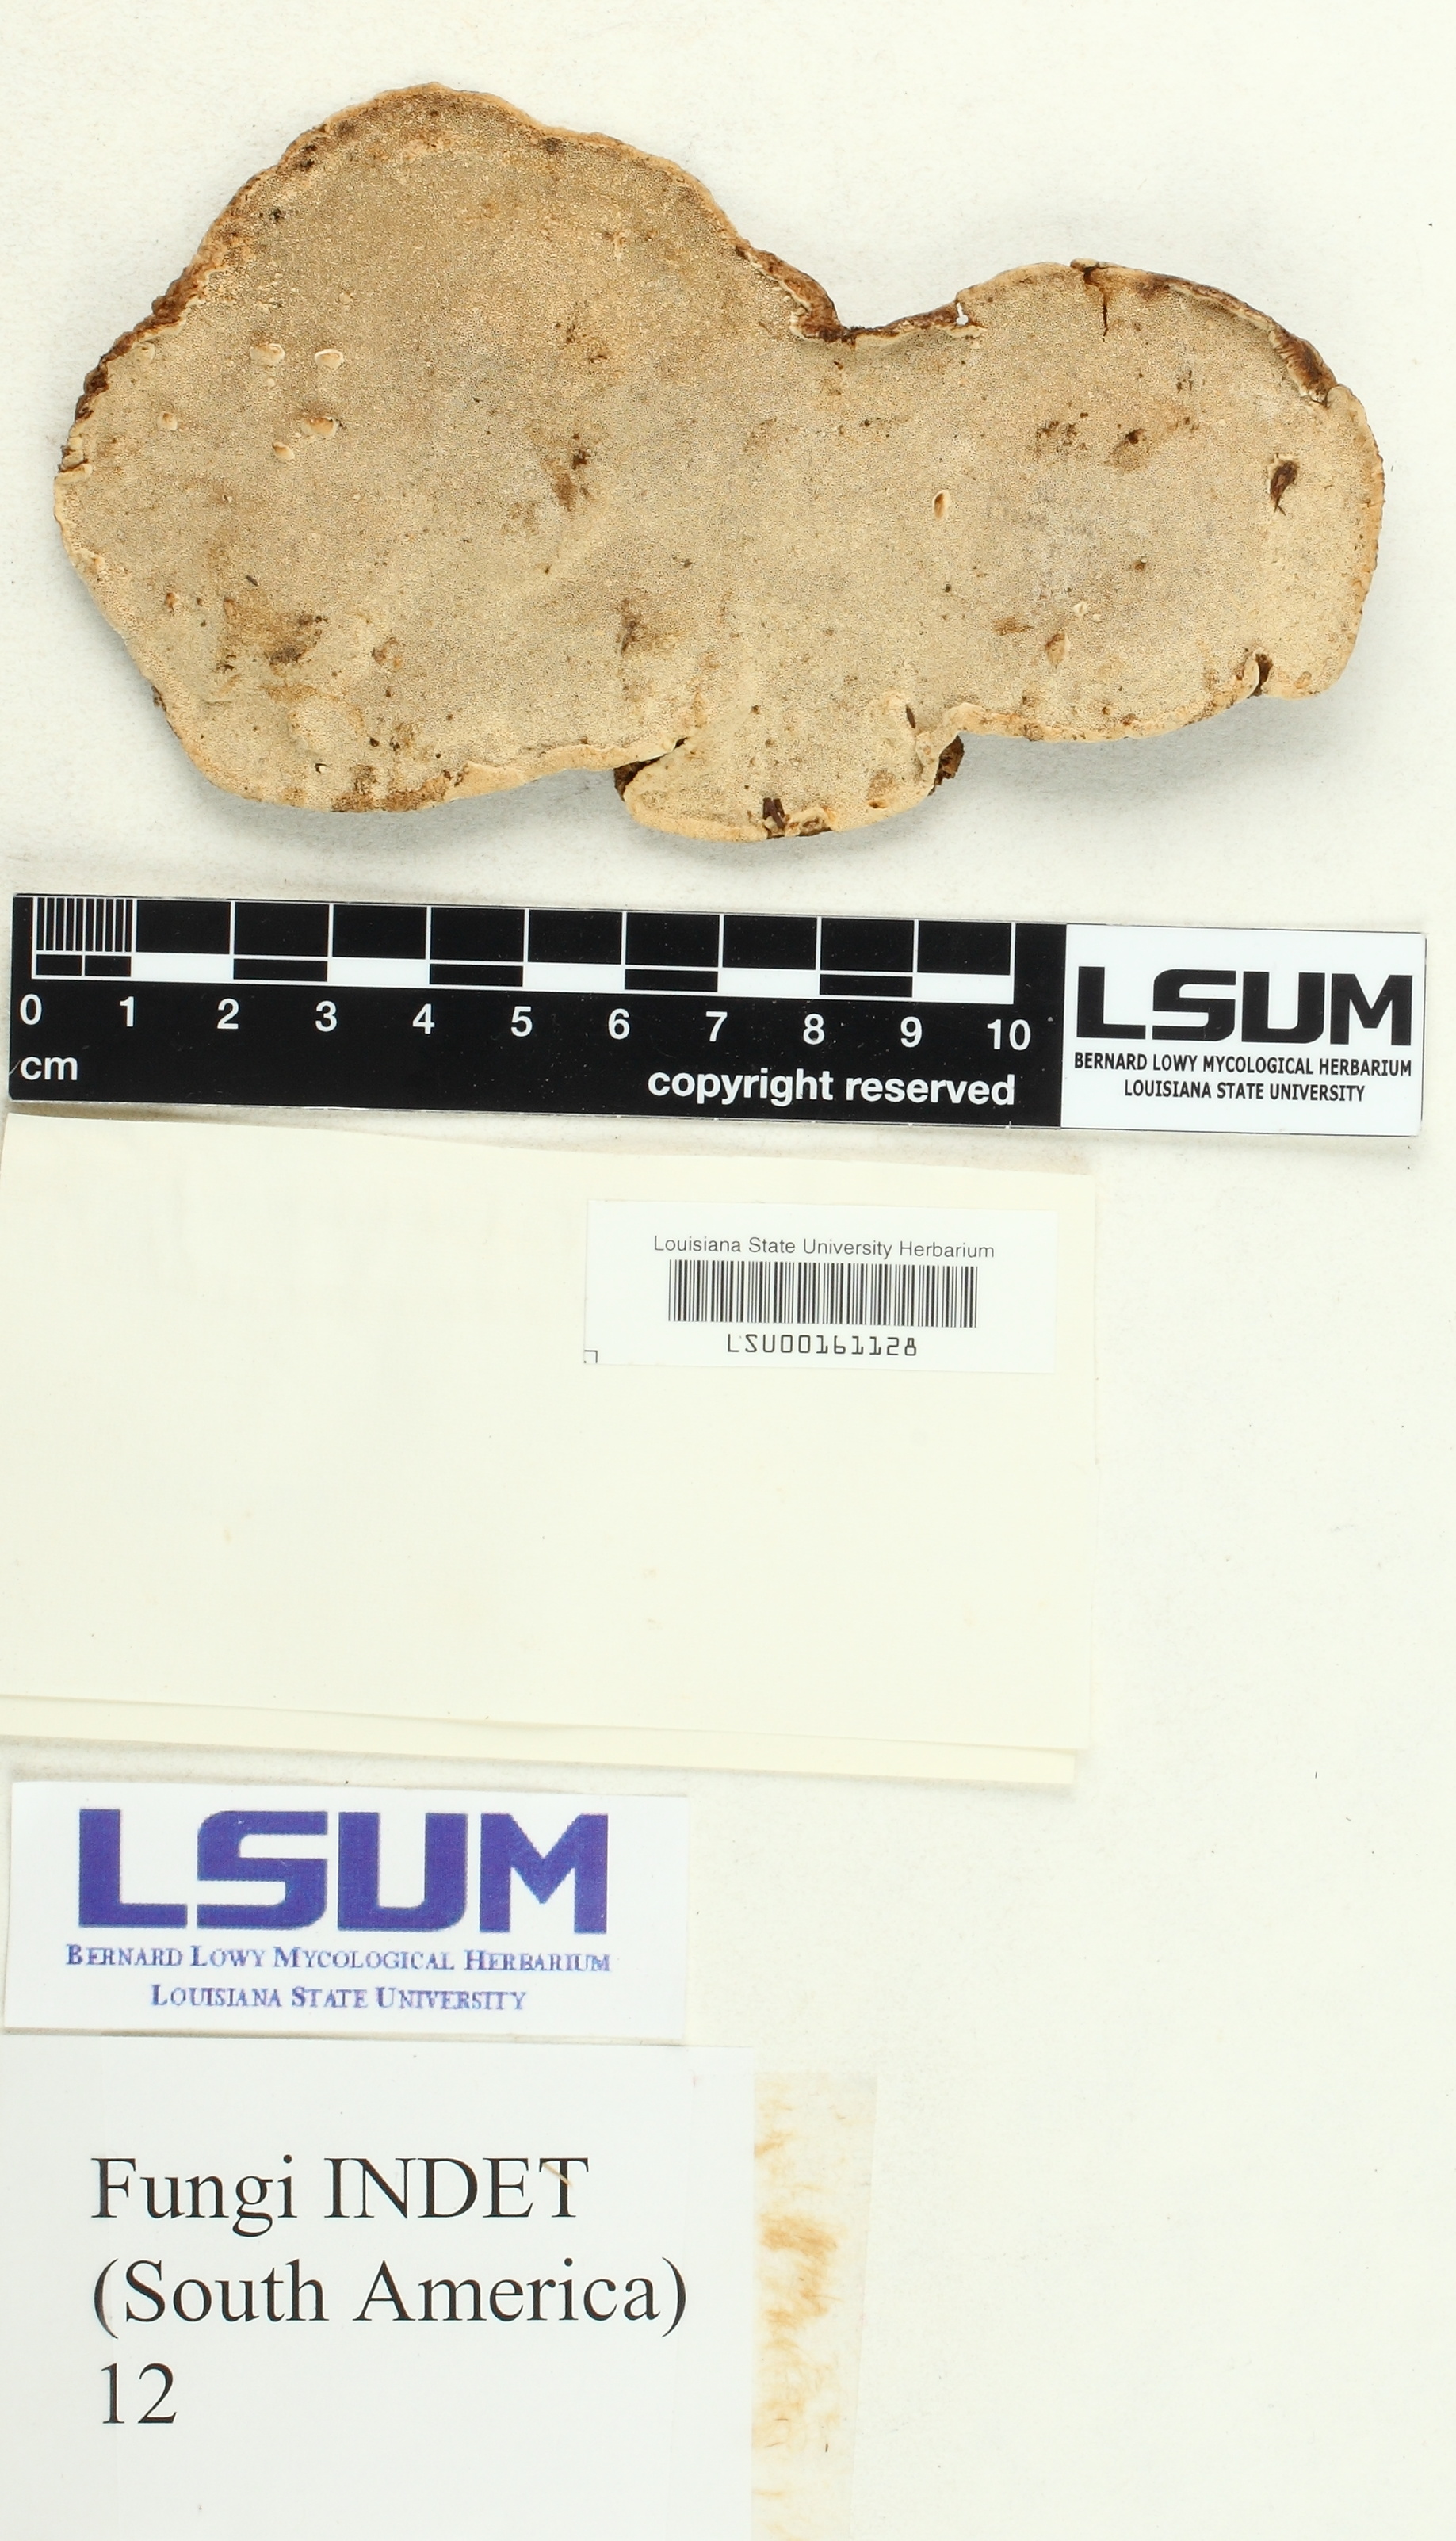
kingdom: Fungi
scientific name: Fungi
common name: Fungi
